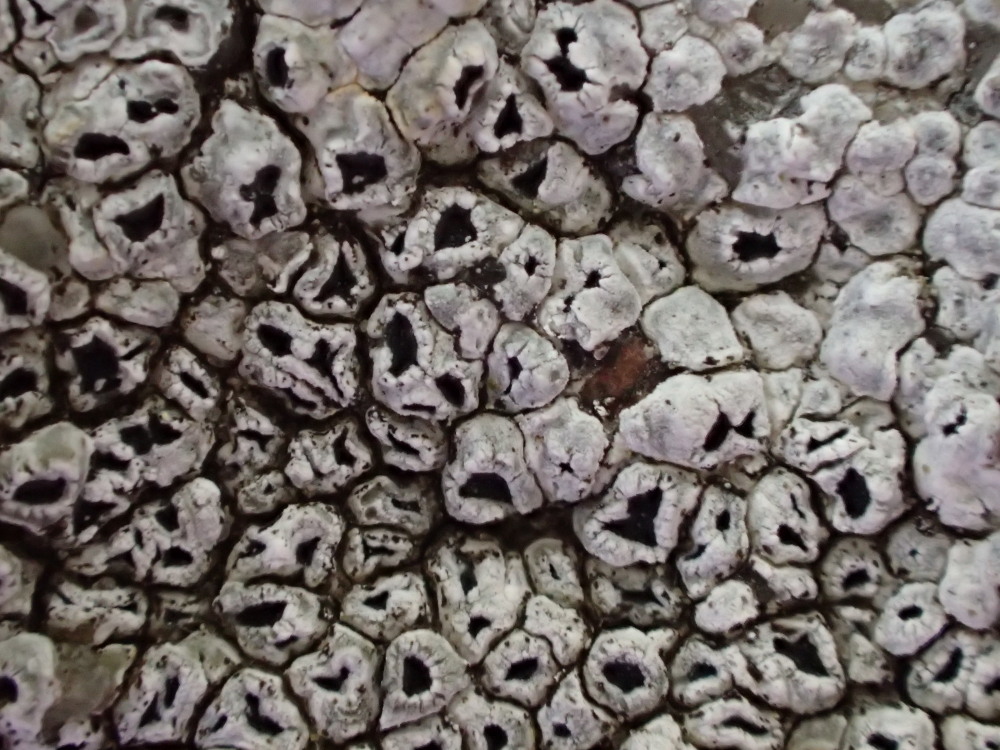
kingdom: Fungi
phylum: Ascomycota
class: Lecanoromycetes
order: Pertusariales
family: Megasporaceae
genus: Circinaria
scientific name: Circinaria contorta
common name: indviklet hulskivelav
